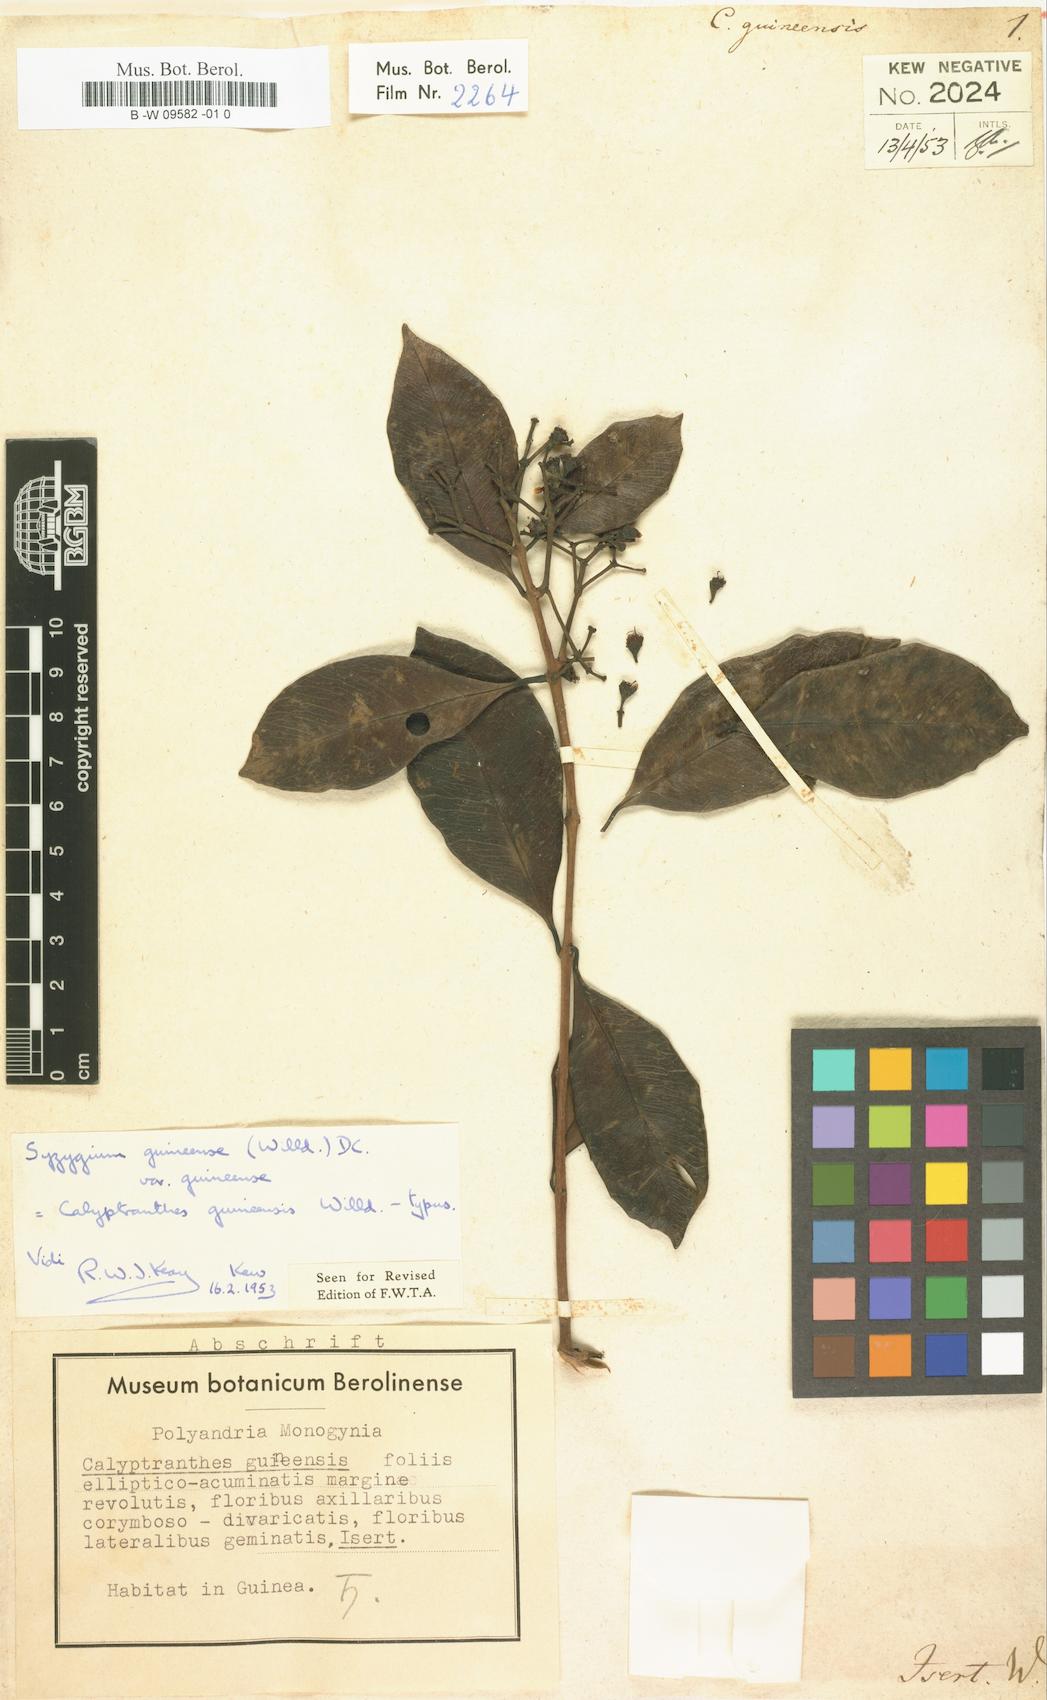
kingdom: Plantae
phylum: Tracheophyta
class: Magnoliopsida
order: Myrtales
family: Myrtaceae
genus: Syzygium
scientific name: Syzygium guineense
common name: Water-pear
